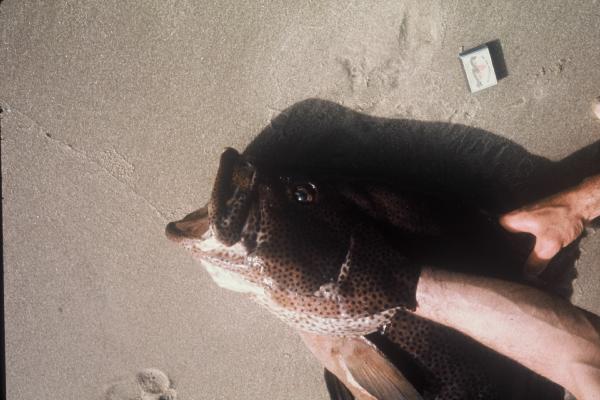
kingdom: Animalia
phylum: Chordata
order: Perciformes
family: Serranidae
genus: Dermatolepis
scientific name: Dermatolepis striolata
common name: Smooth grouper
